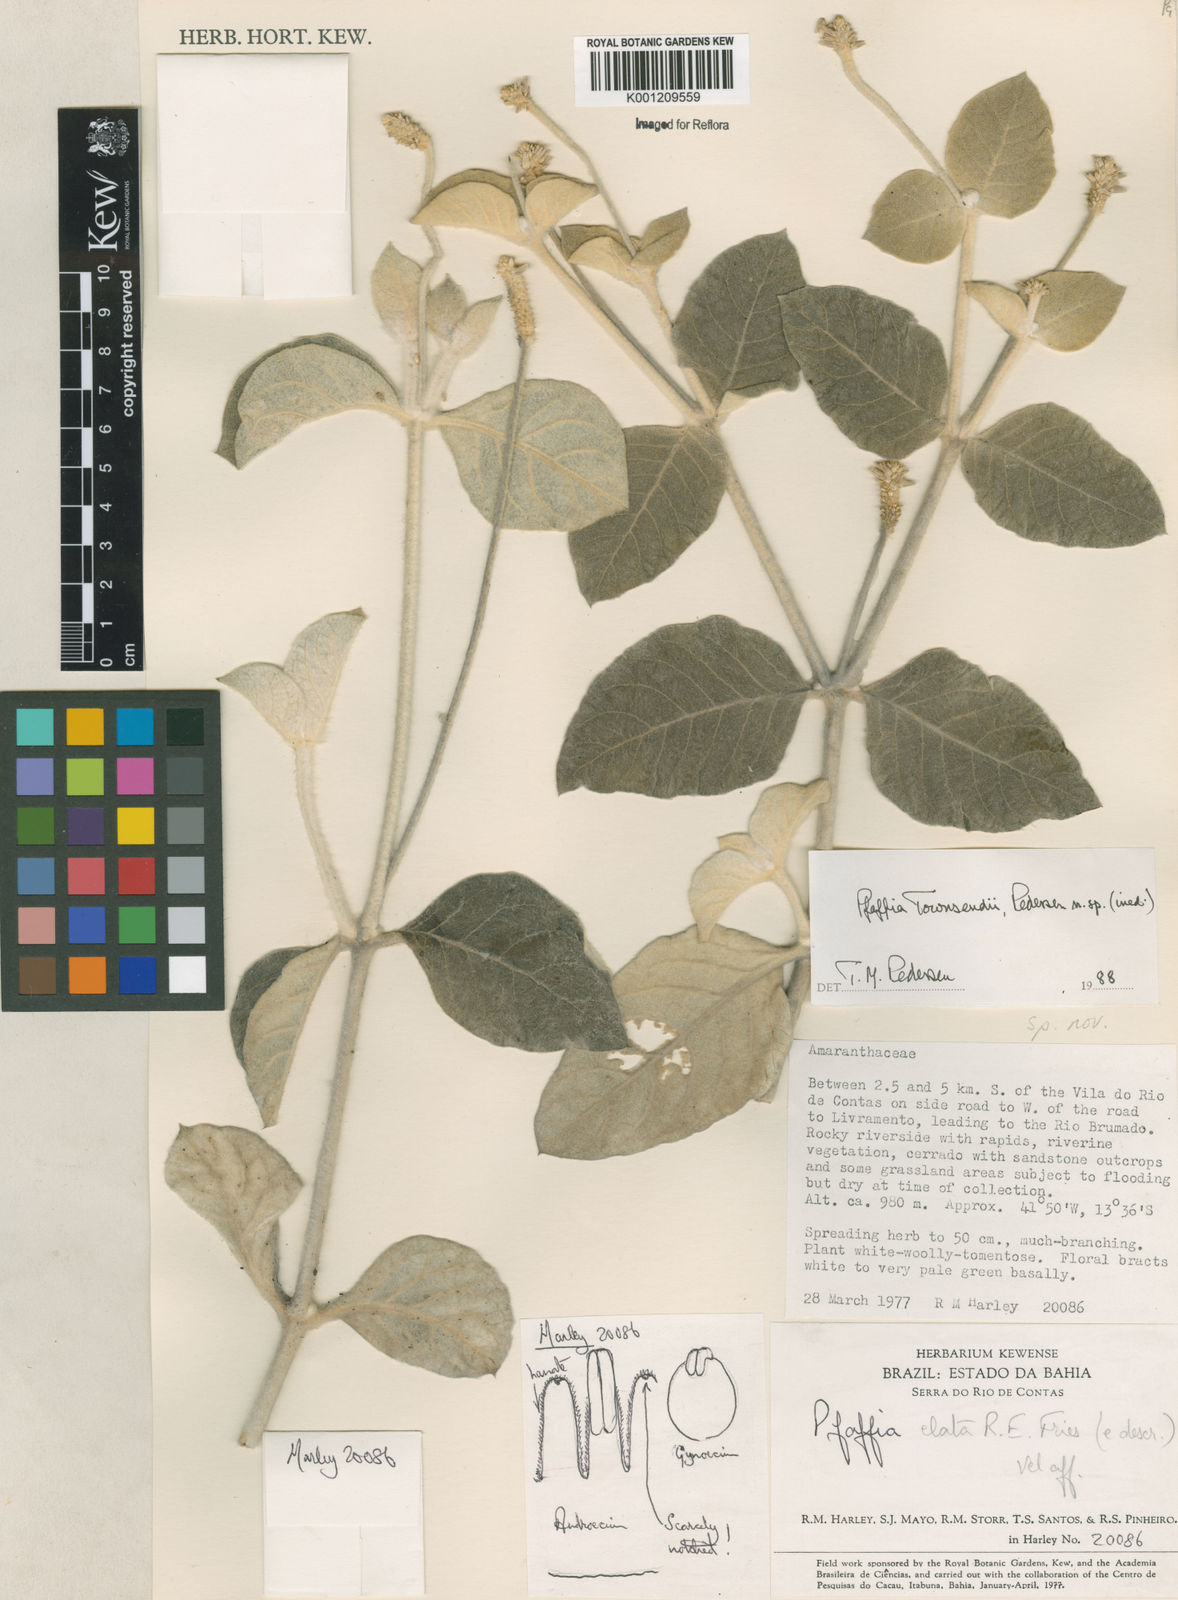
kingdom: Plantae
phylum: Tracheophyta
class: Magnoliopsida
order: Caryophyllales
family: Amaranthaceae
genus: Pfaffia
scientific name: Pfaffia townsendii
